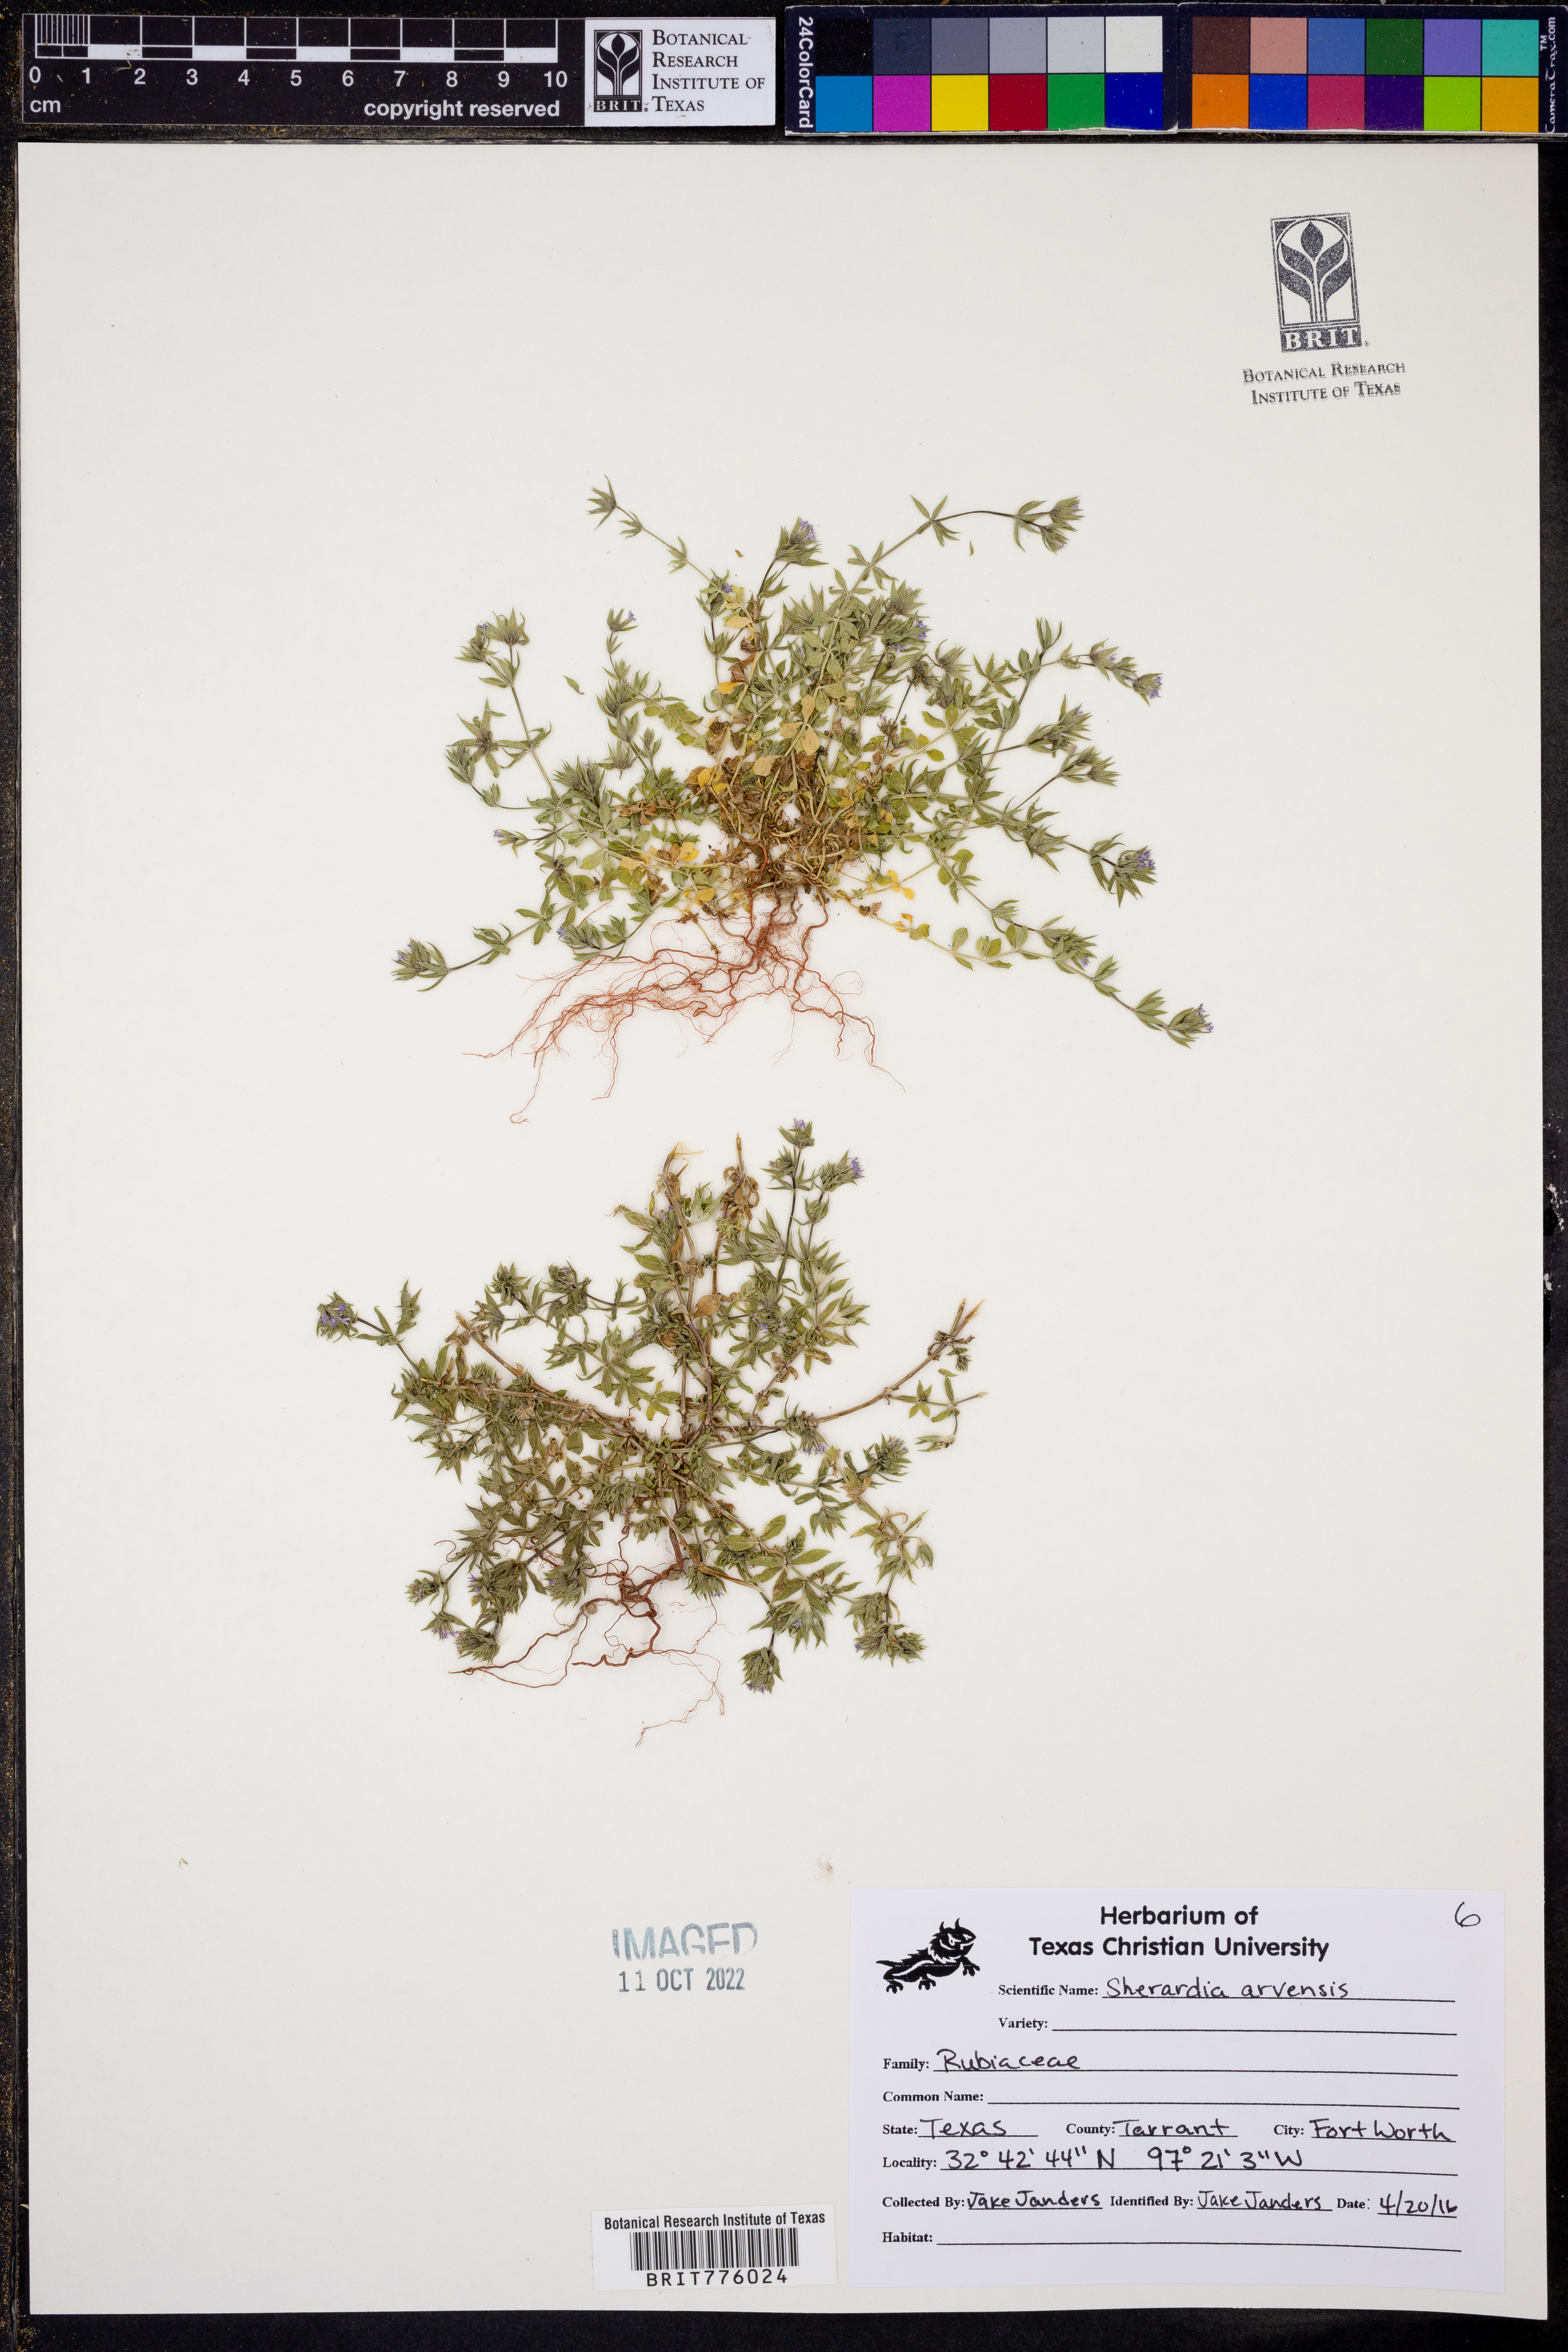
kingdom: Plantae
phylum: Tracheophyta
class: Magnoliopsida
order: Gentianales
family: Rubiaceae
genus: Sherardia
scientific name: Sherardia arvensis
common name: Field madder
